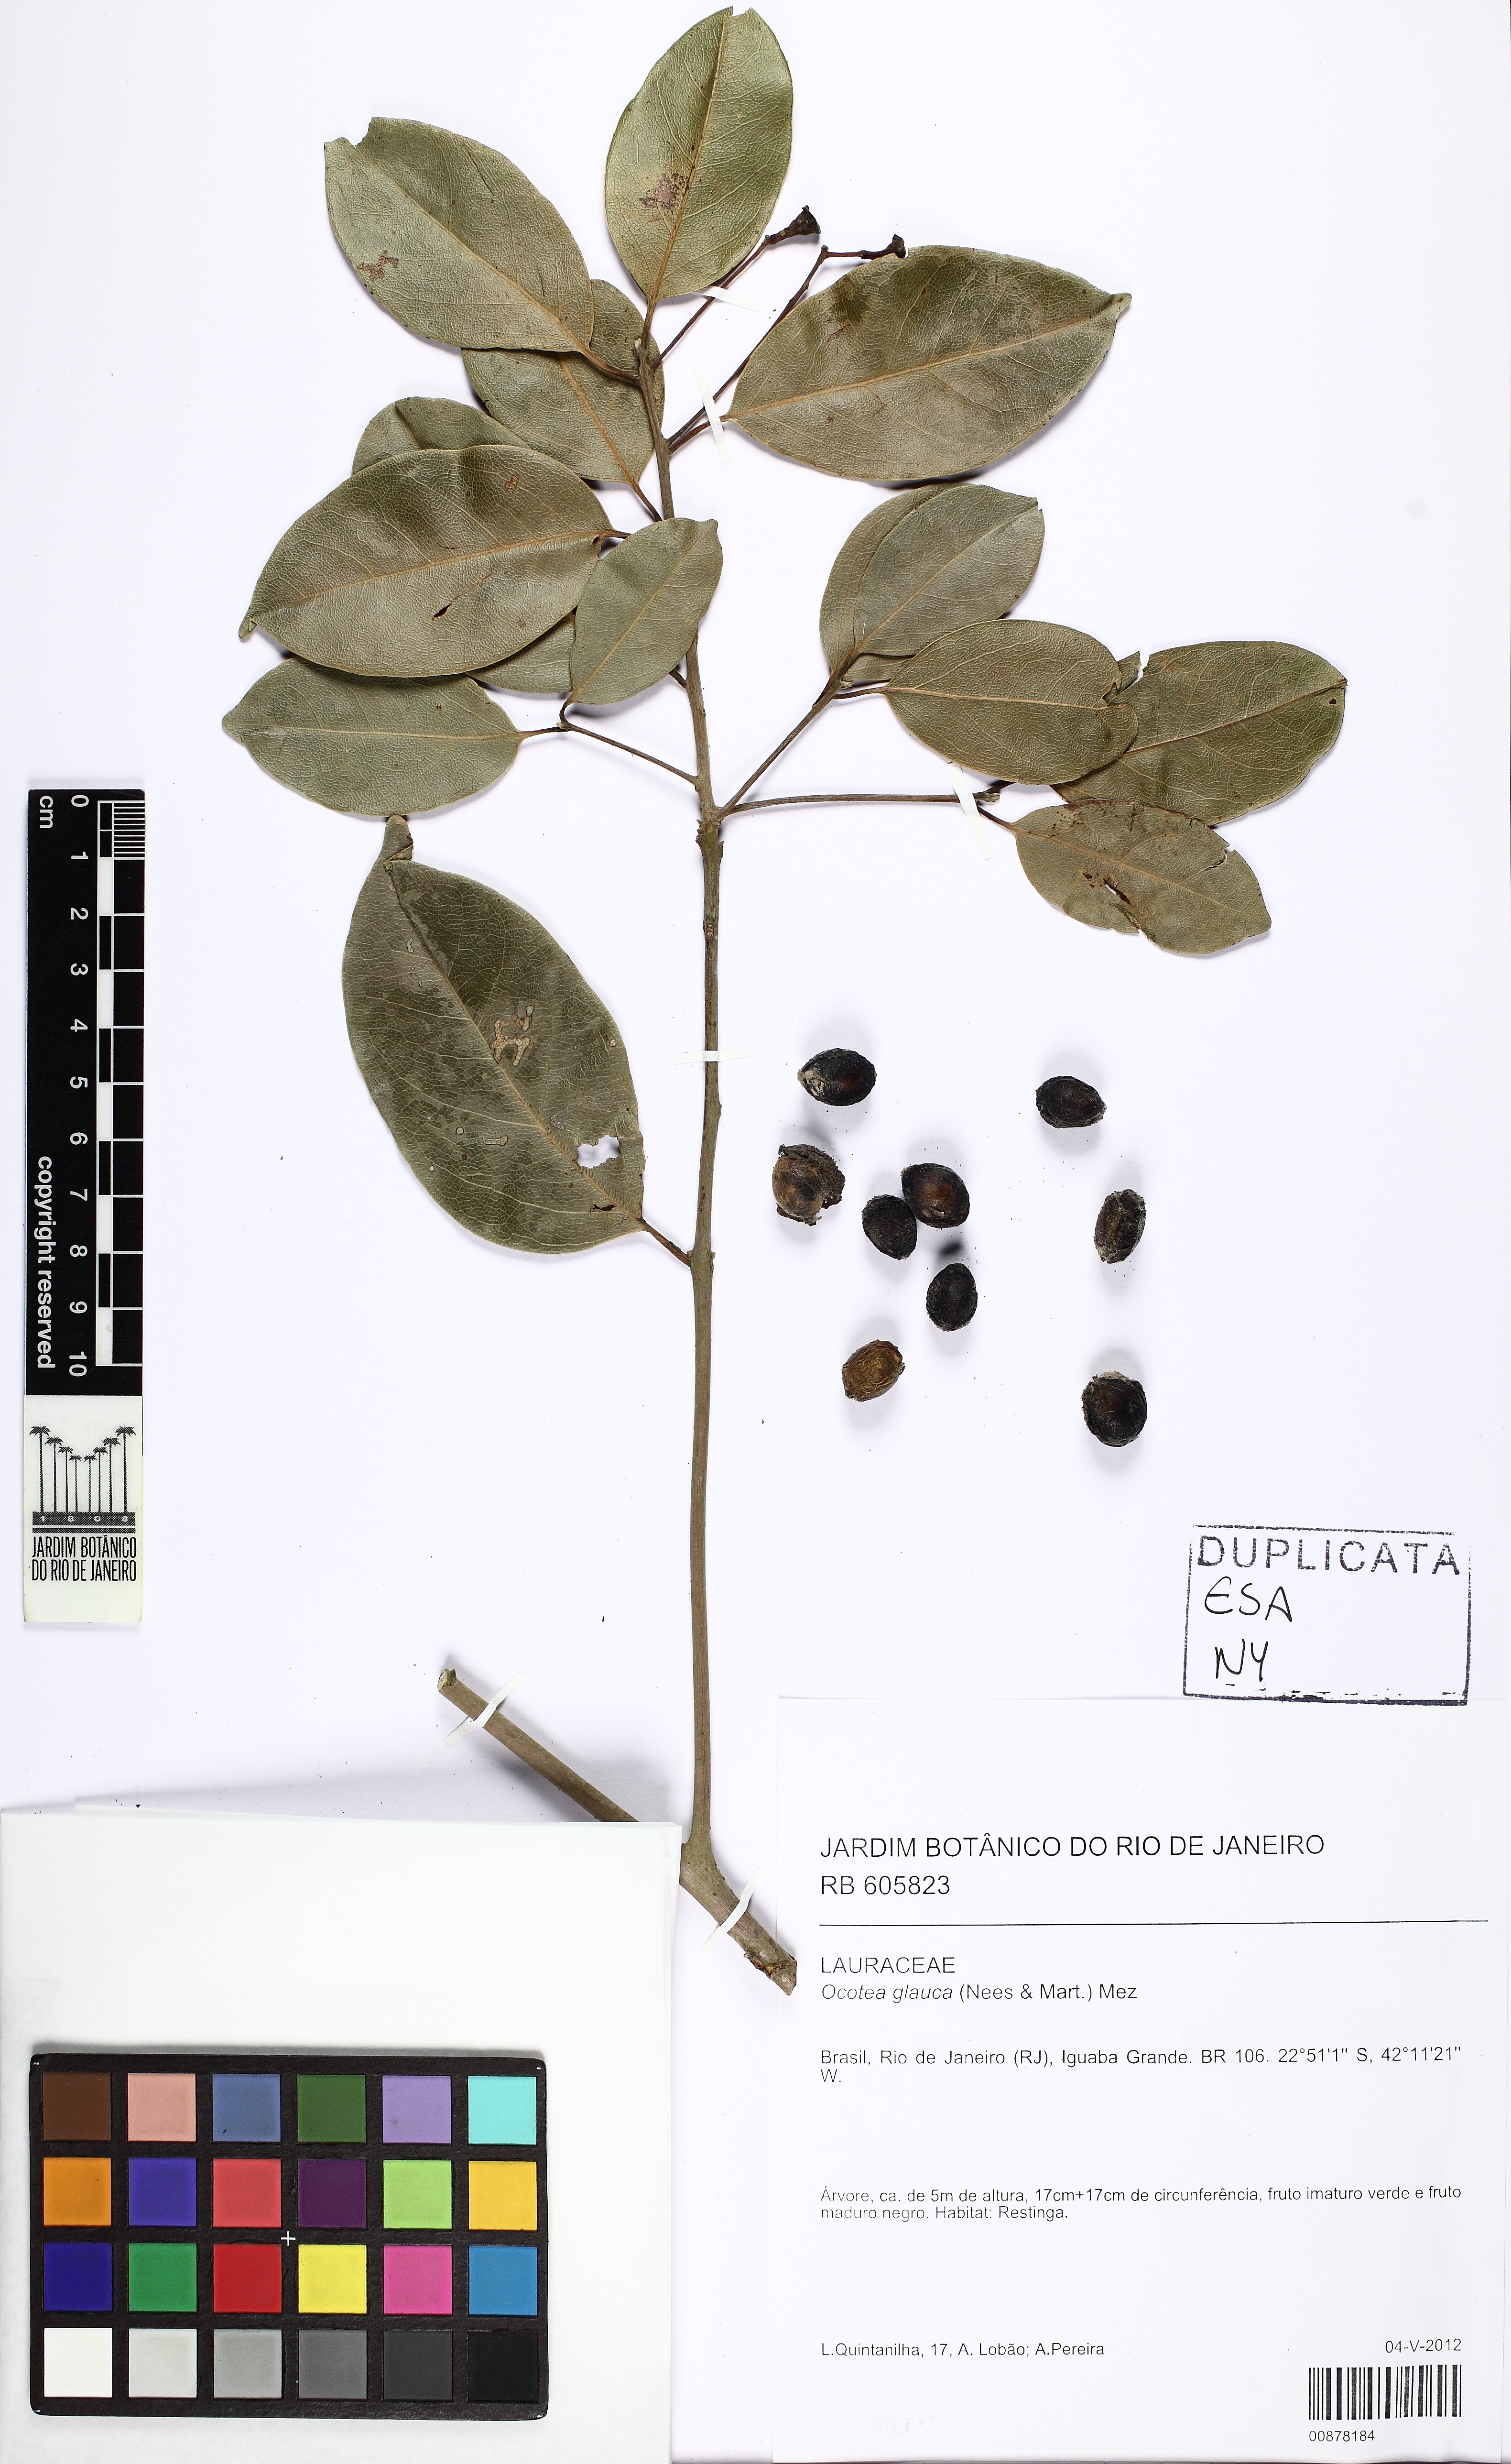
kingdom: Plantae
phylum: Tracheophyta
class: Magnoliopsida
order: Laurales
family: Lauraceae
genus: Mespilodaphne
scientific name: Mespilodaphne glauca
